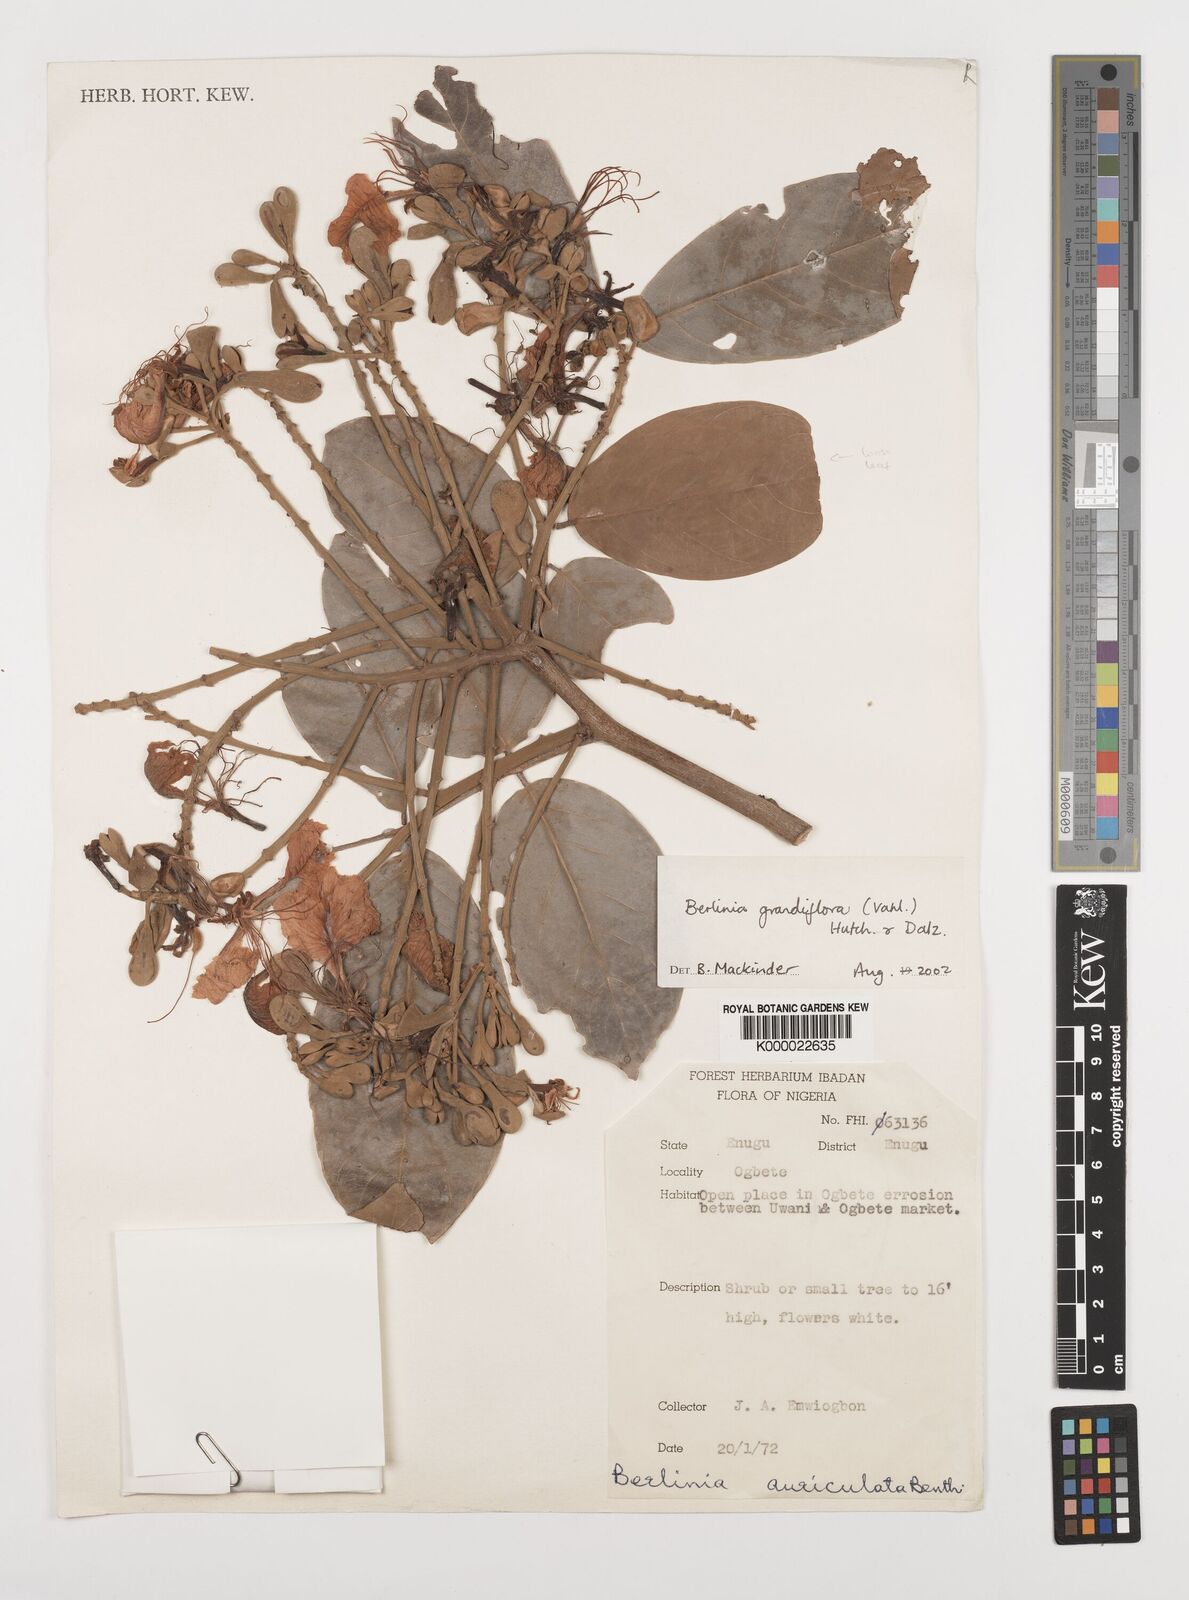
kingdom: Plantae
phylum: Tracheophyta
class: Magnoliopsida
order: Fabales
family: Fabaceae
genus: Berlinia
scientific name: Berlinia grandiflora
